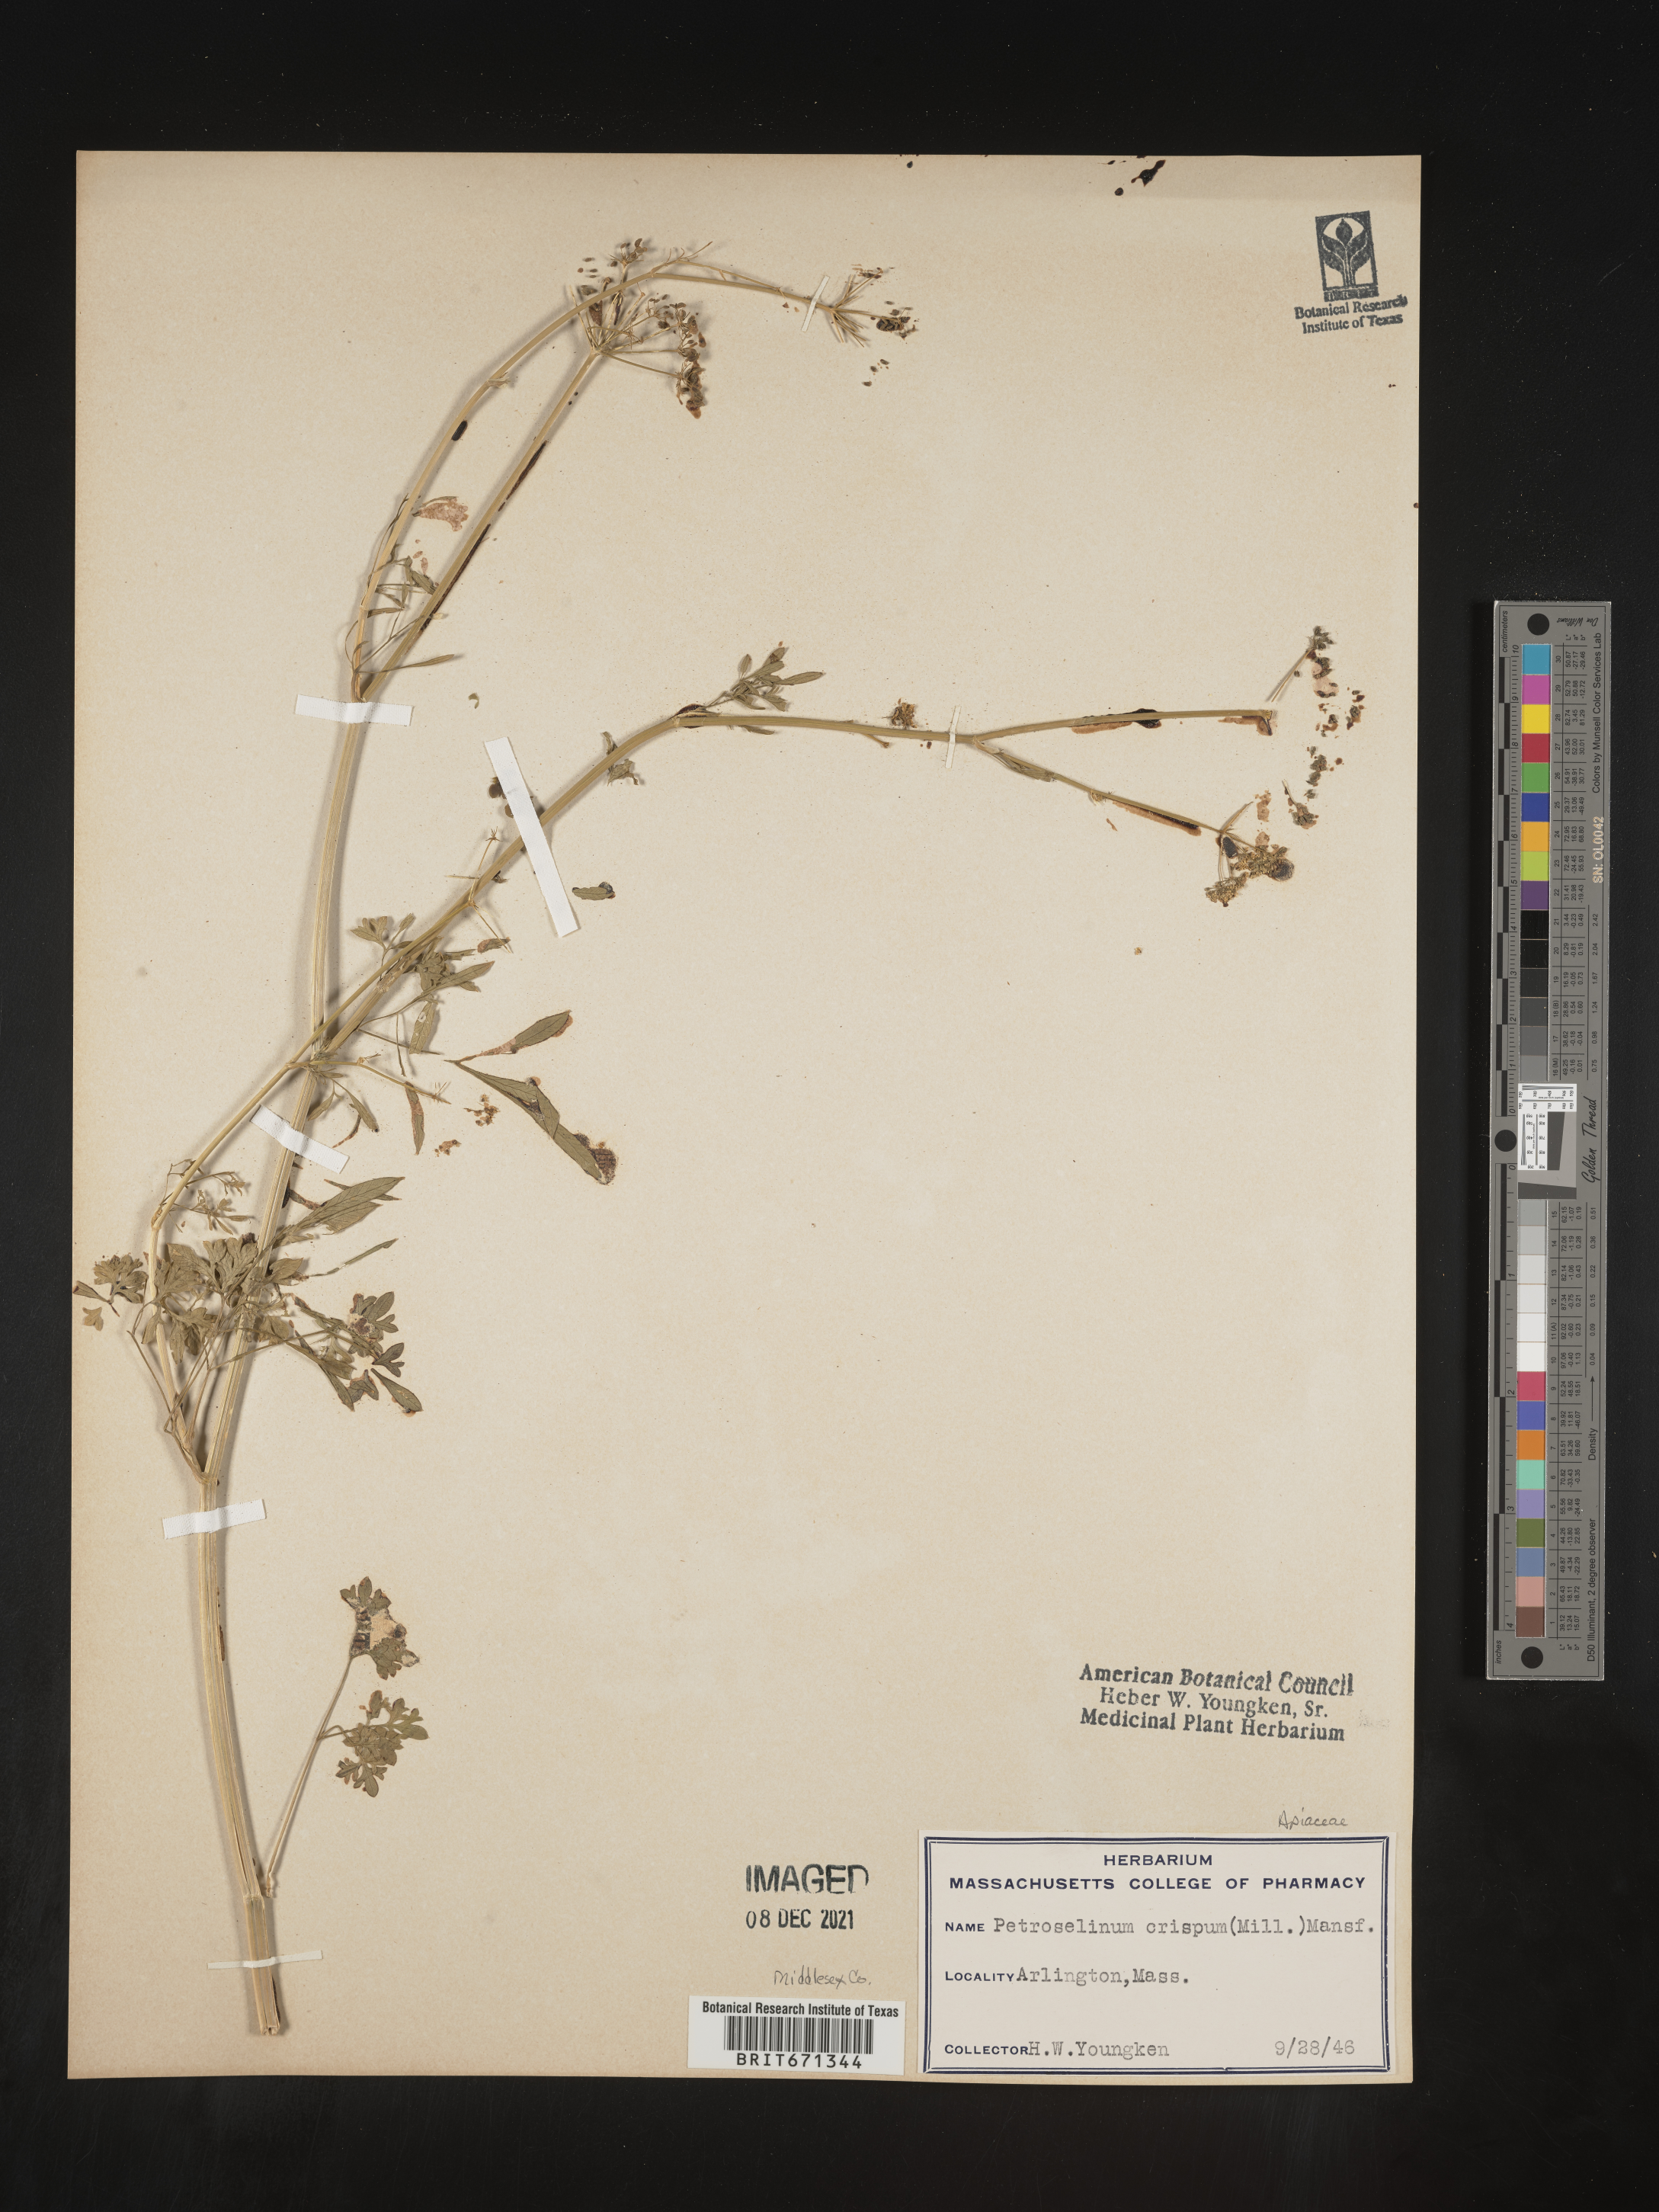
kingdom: Plantae
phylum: Tracheophyta
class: Magnoliopsida
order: Apiales
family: Apiaceae
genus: Petroselinum
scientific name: Petroselinum
